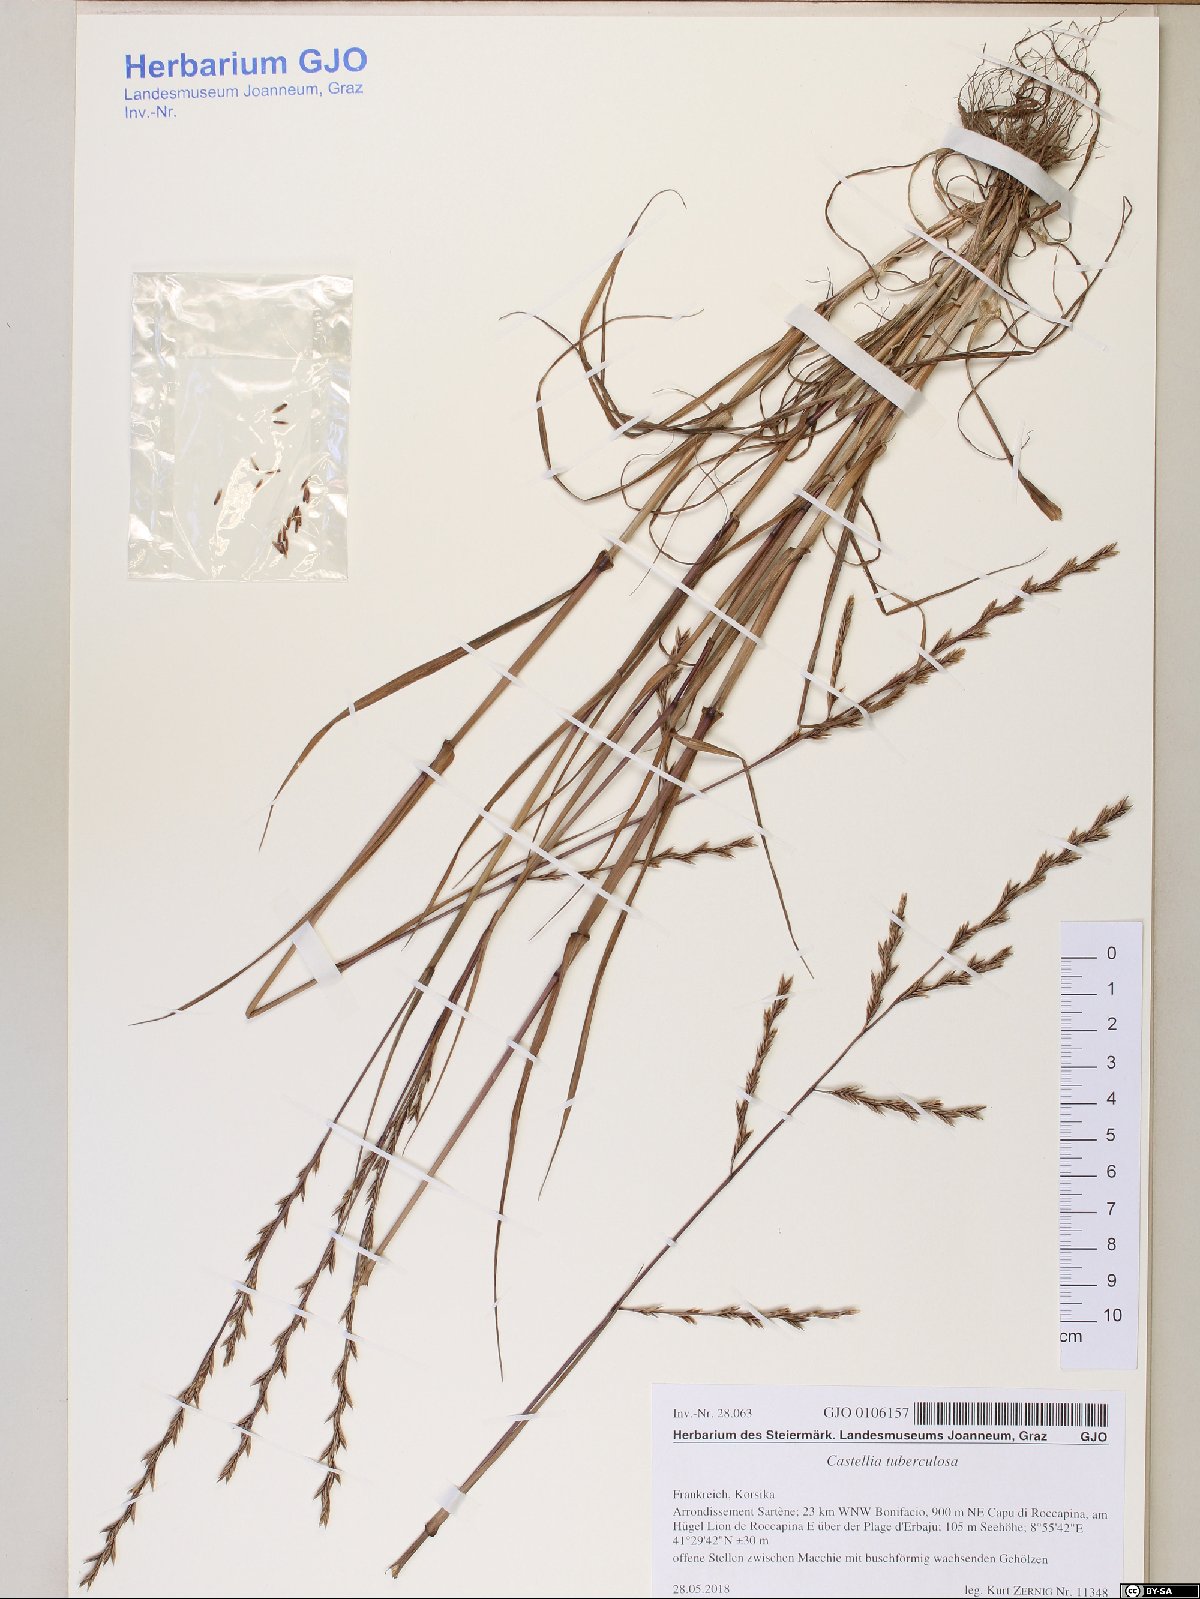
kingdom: Plantae
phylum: Tracheophyta
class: Liliopsida
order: Poales
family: Poaceae
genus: Castellia
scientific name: Castellia tuberculosa
